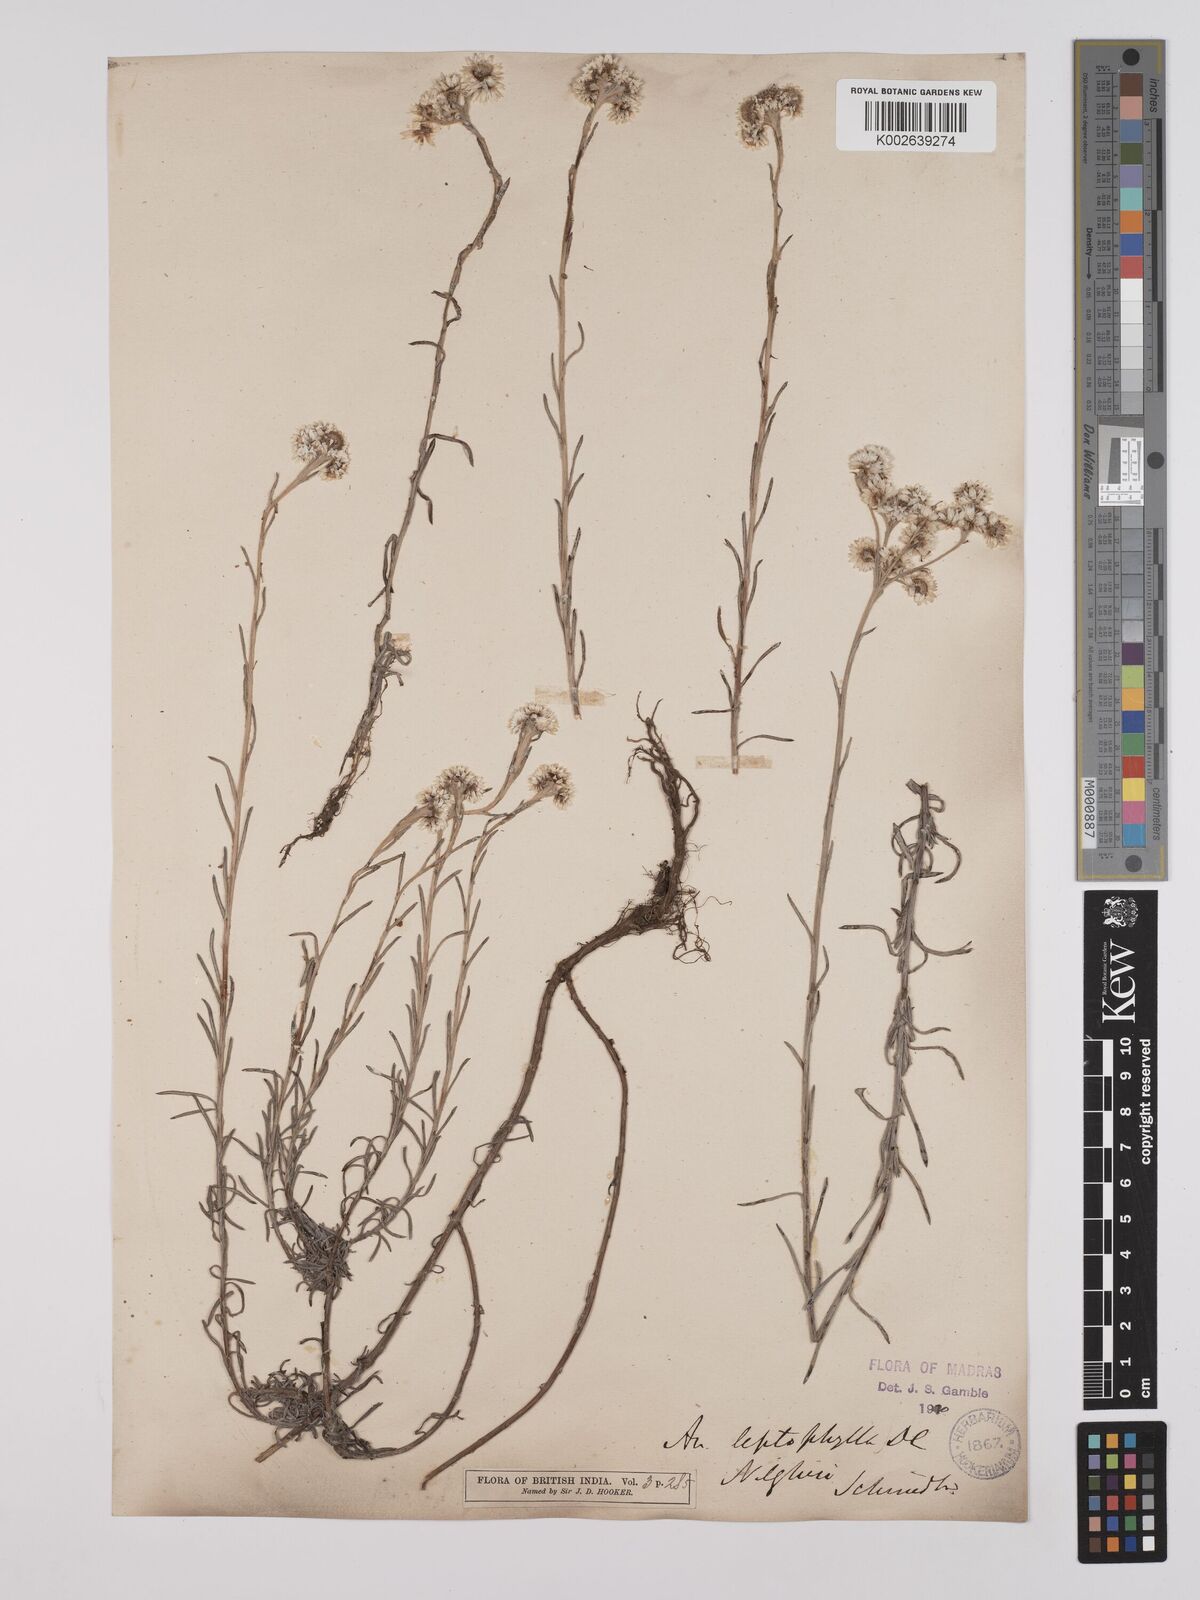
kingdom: Plantae
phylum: Tracheophyta
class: Magnoliopsida
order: Asterales
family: Asteraceae
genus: Anaphalis
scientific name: Anaphalis leptophylla
